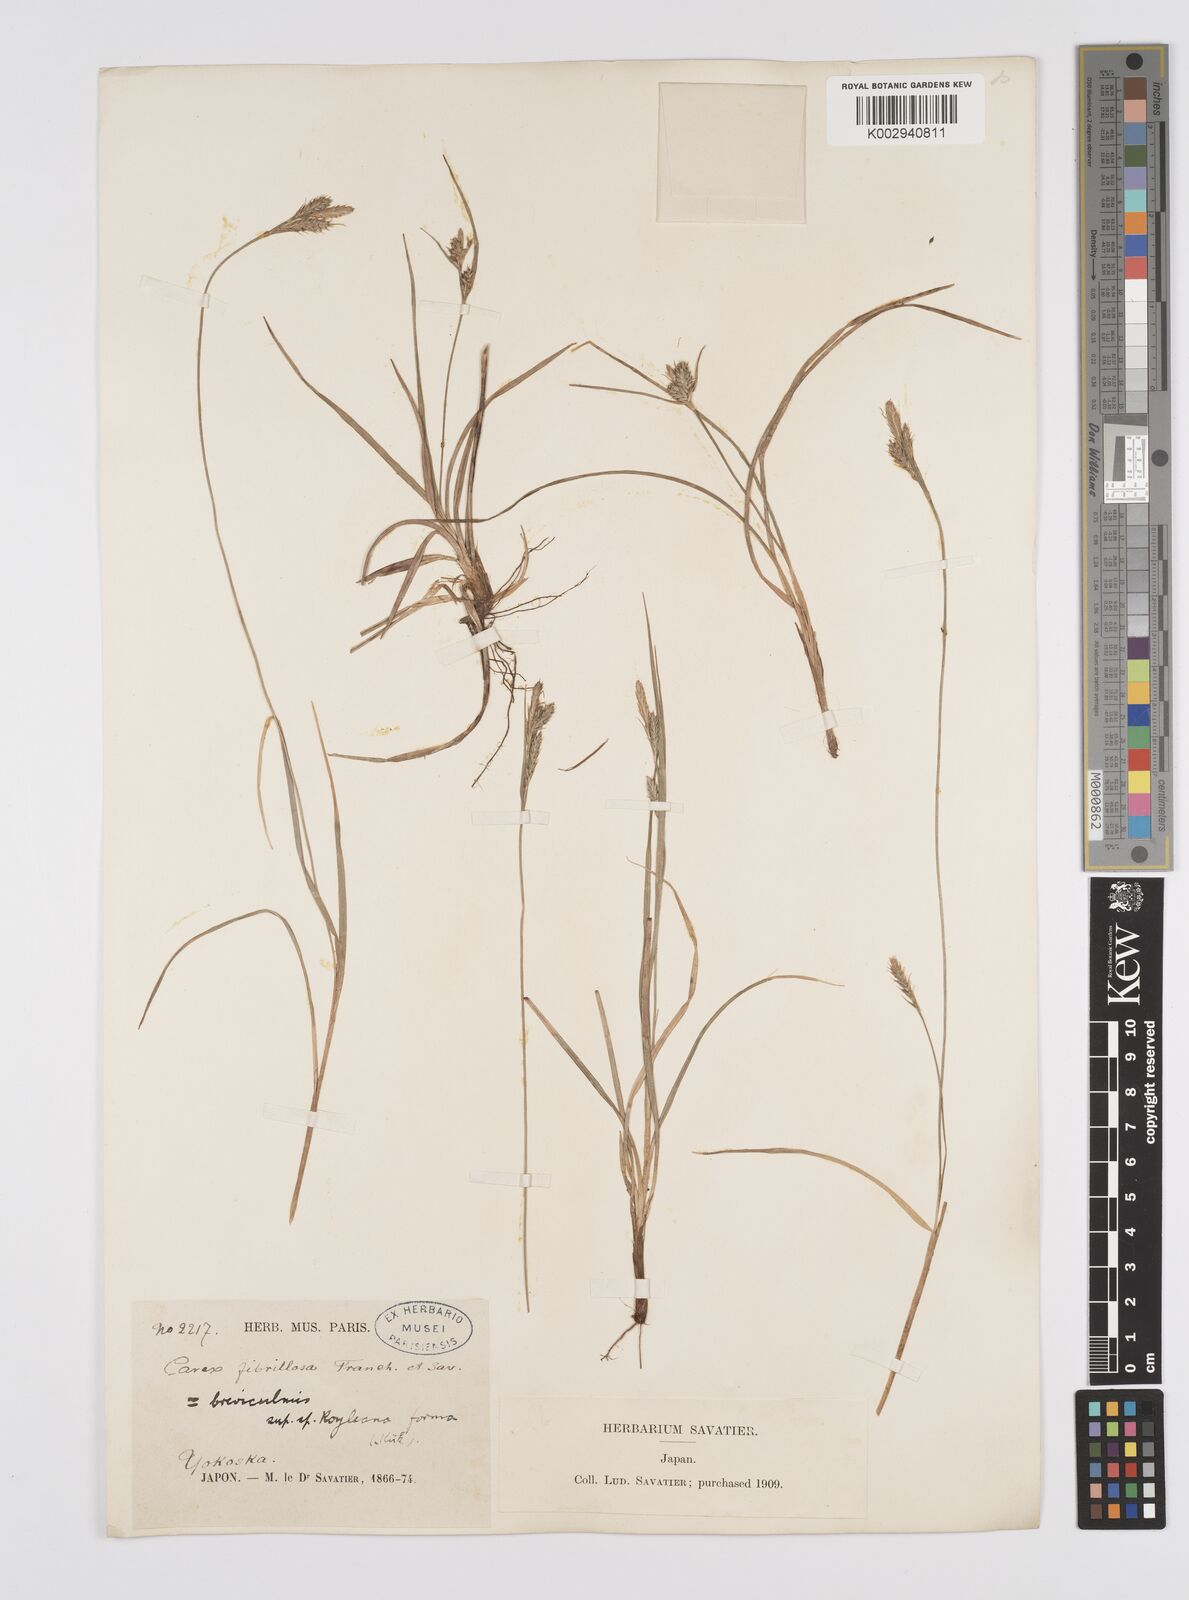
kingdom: Plantae
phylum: Tracheophyta
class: Liliopsida
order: Poales
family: Cyperaceae
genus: Carex
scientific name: Carex breviculmis
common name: Asian shortstem sedge
